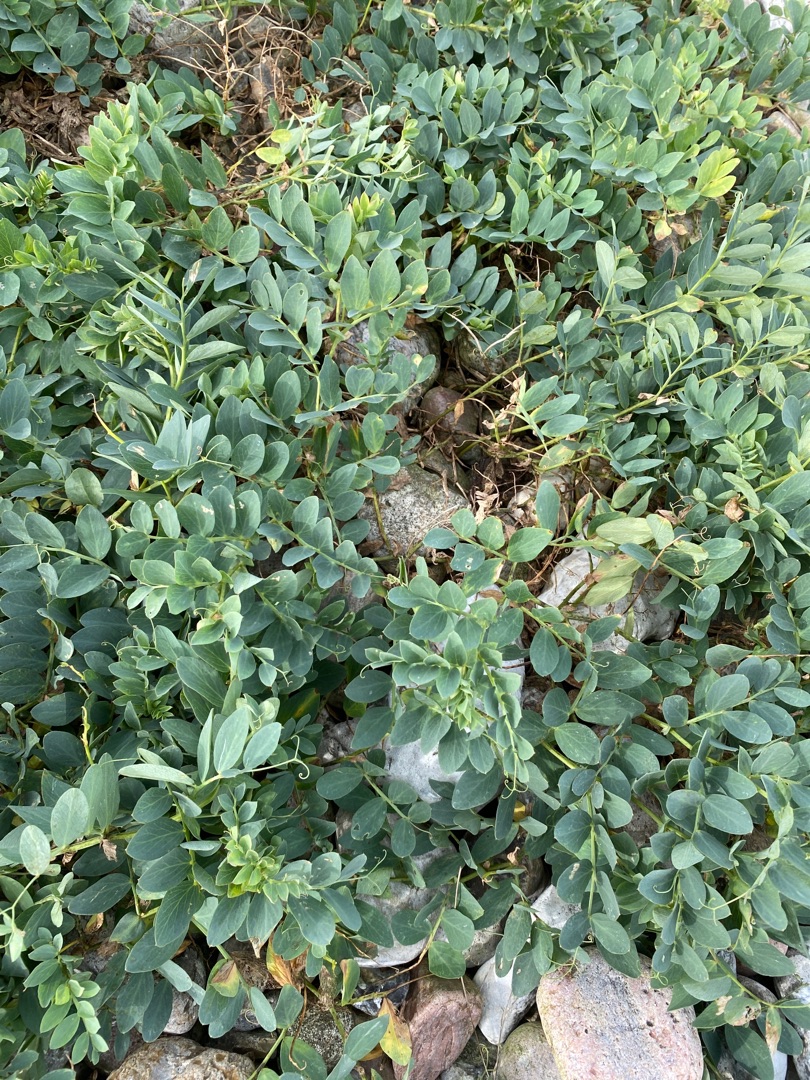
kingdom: Plantae
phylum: Tracheophyta
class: Magnoliopsida
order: Fabales
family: Fabaceae
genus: Lathyrus
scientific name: Lathyrus japonicus
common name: Strand-fladbælg
